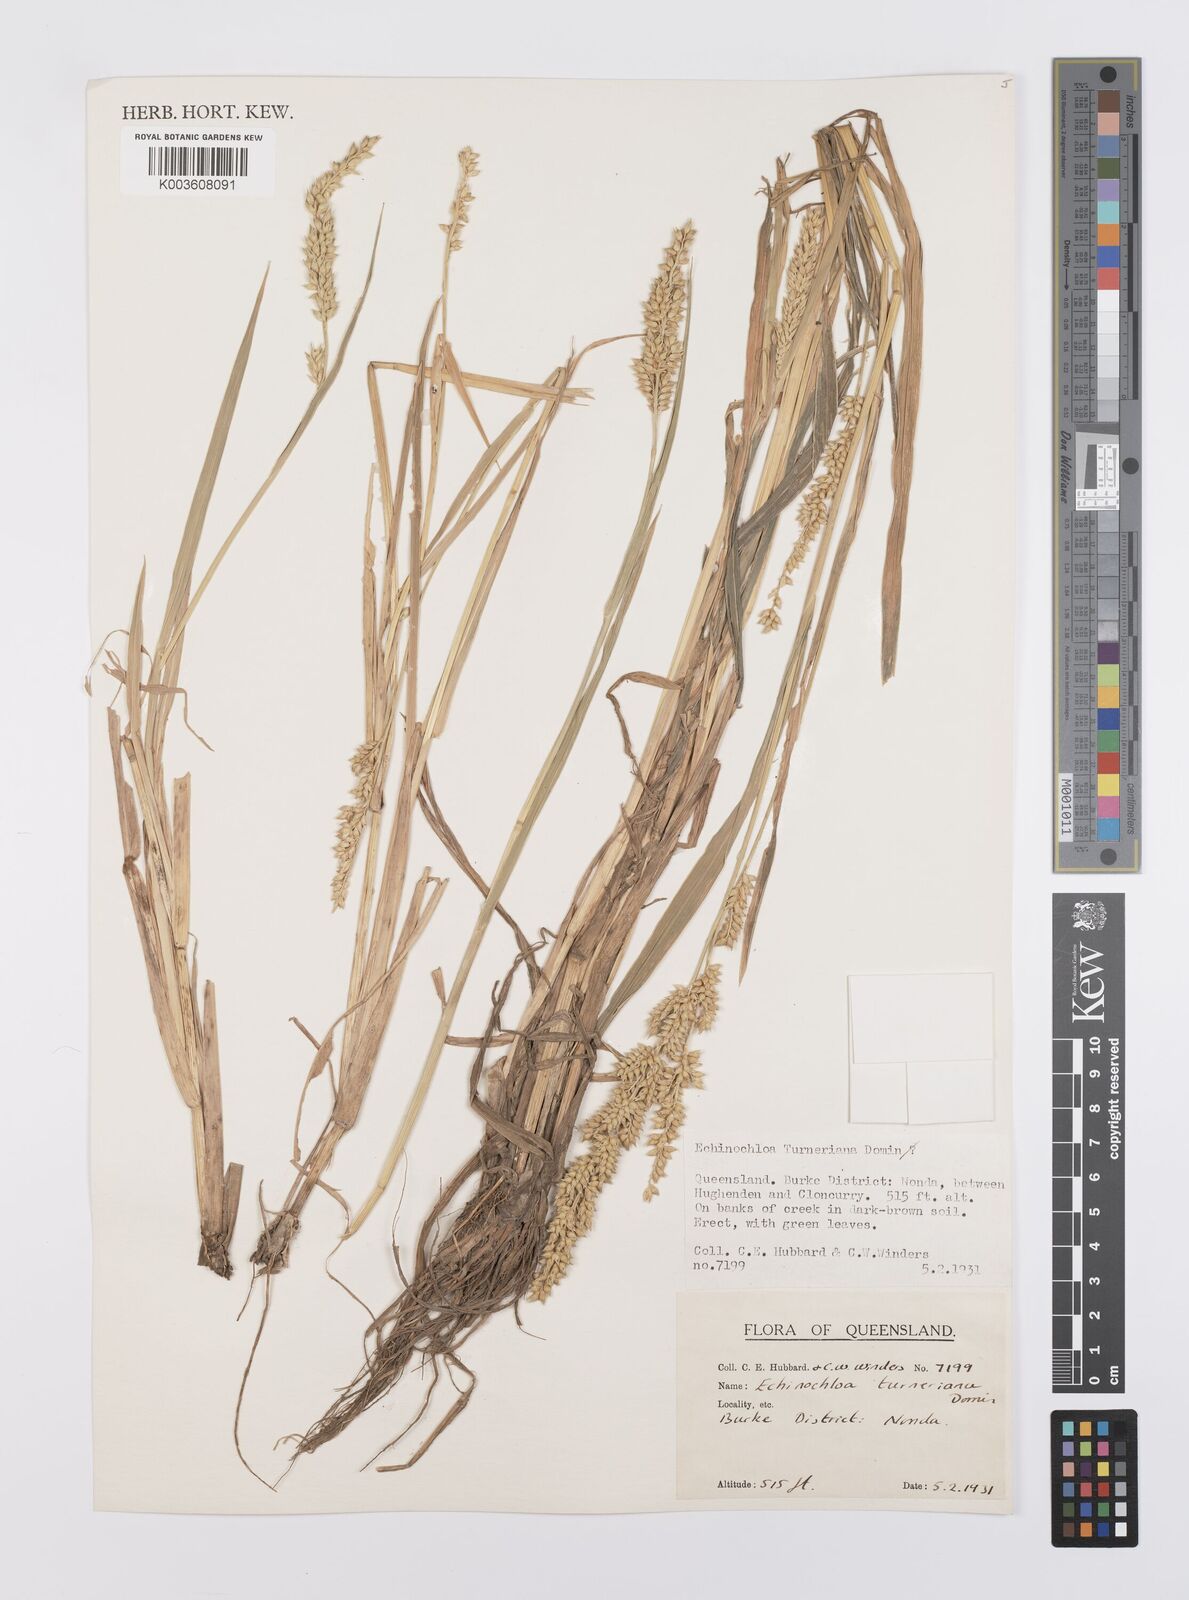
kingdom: Plantae
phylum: Tracheophyta
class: Liliopsida
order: Poales
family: Poaceae
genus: Echinochloa
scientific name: Echinochloa turneriana
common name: Channel millet
